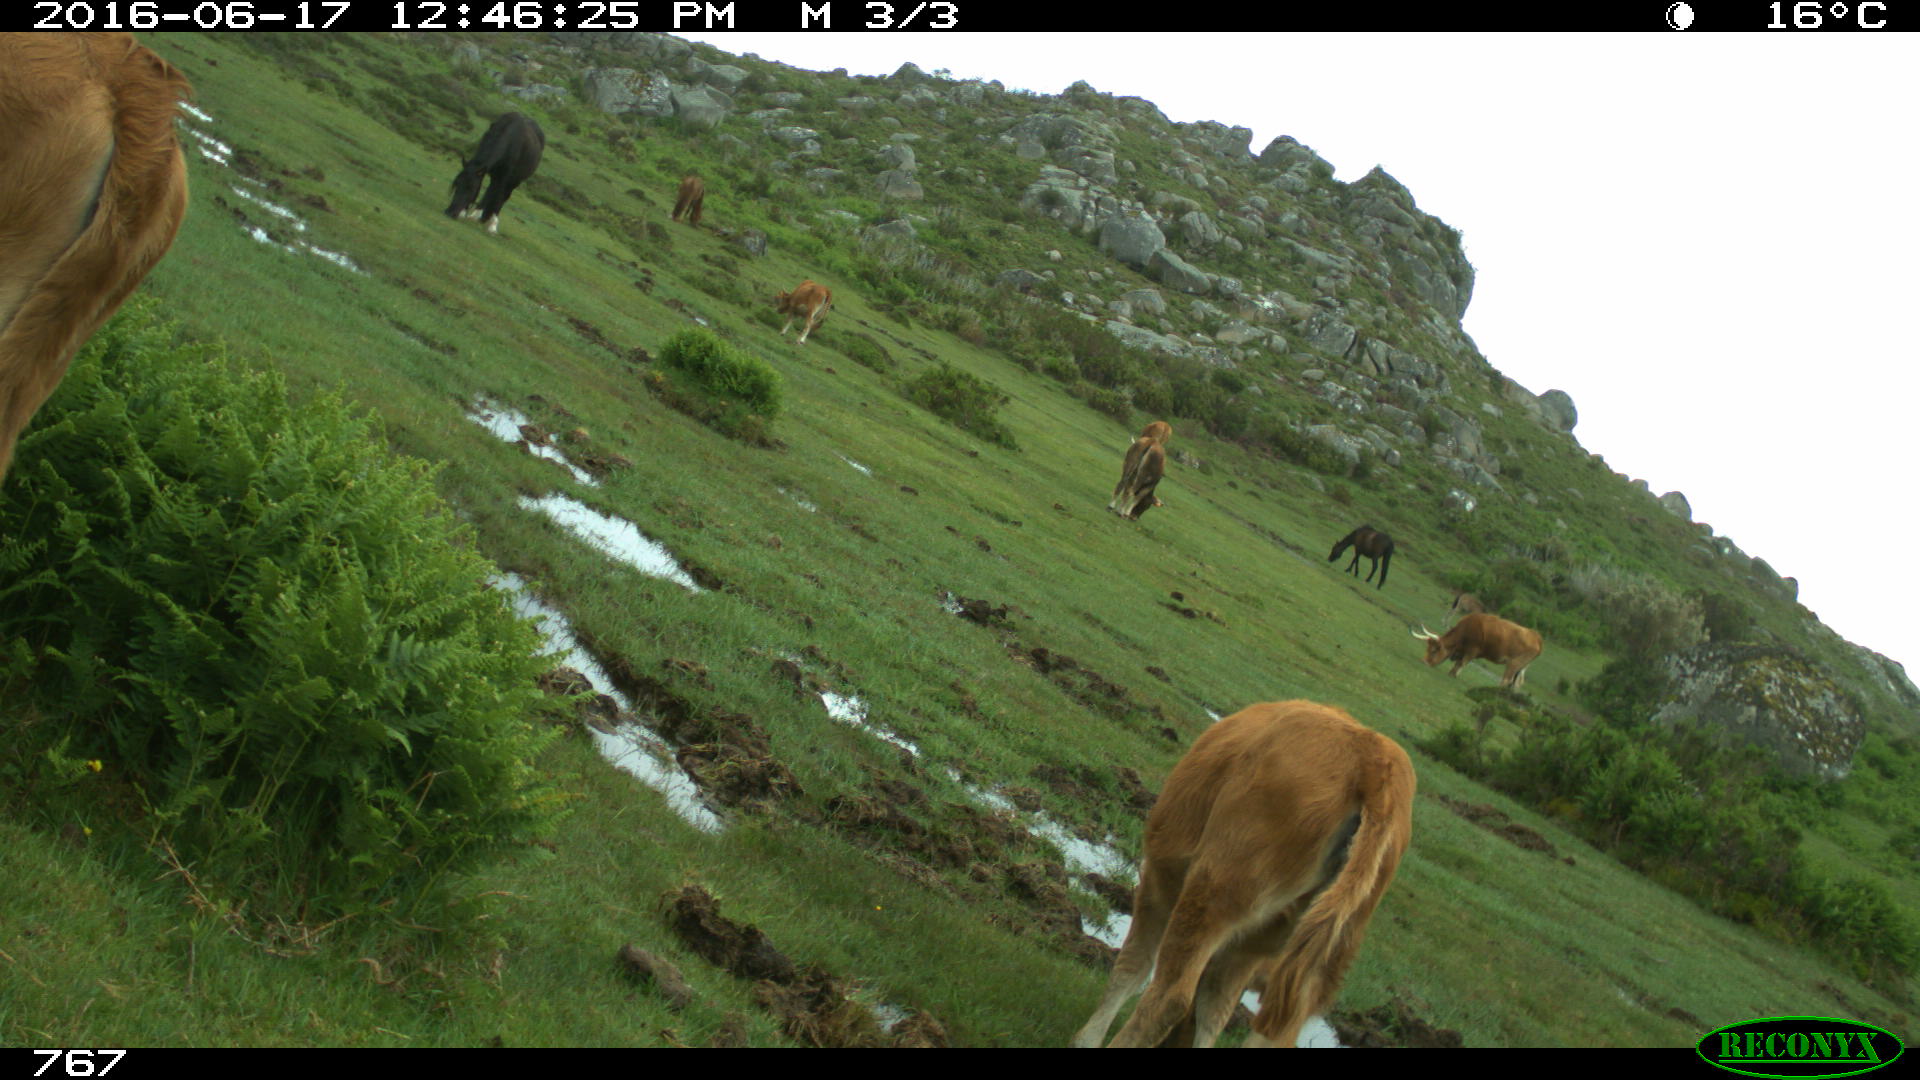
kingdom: Animalia
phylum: Chordata
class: Mammalia
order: Artiodactyla
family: Bovidae
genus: Bos
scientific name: Bos taurus
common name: Domesticated cattle
